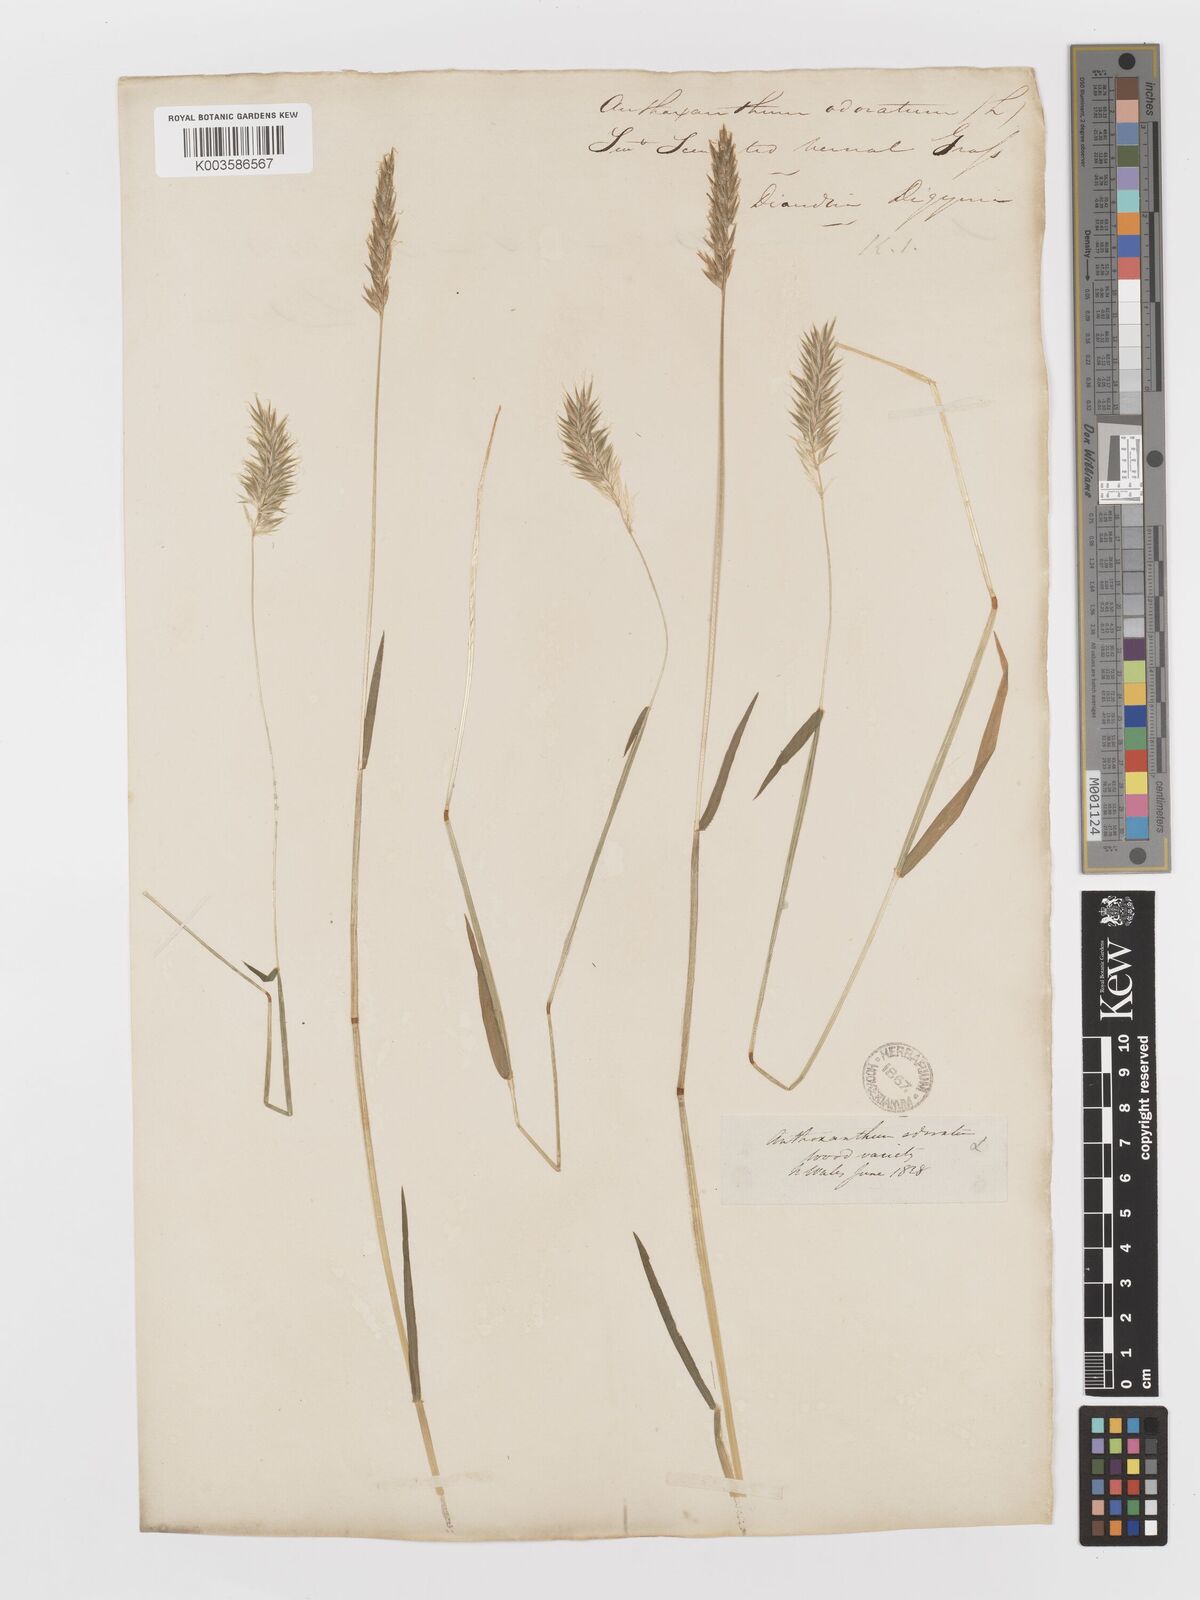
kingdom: Plantae
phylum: Tracheophyta
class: Liliopsida
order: Poales
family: Poaceae
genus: Anthoxanthum
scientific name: Anthoxanthum odoratum
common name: Sweet vernalgrass
